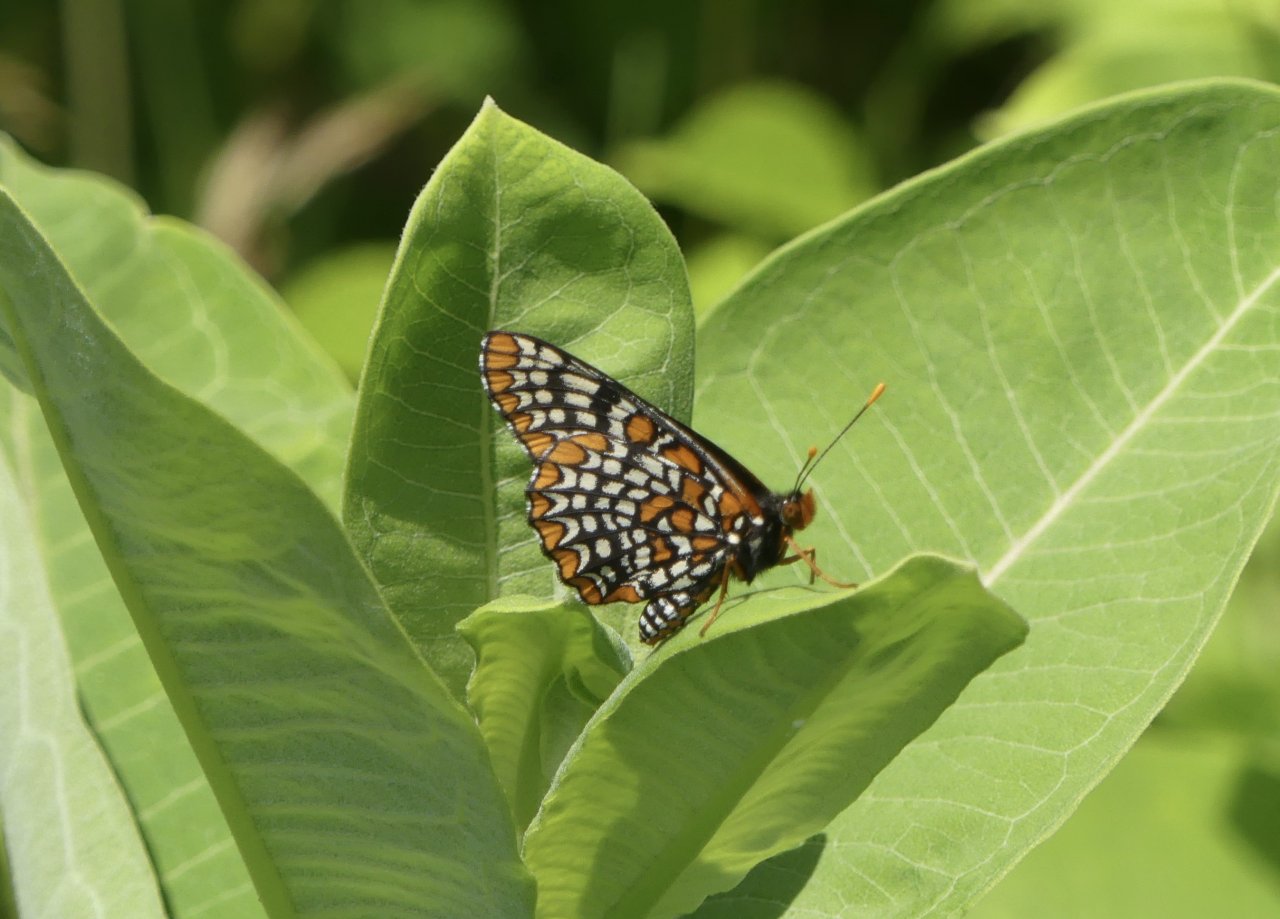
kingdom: Animalia
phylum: Arthropoda
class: Insecta
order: Lepidoptera
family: Nymphalidae
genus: Euphydryas
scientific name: Euphydryas phaeton
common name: Baltimore Checkerspot
